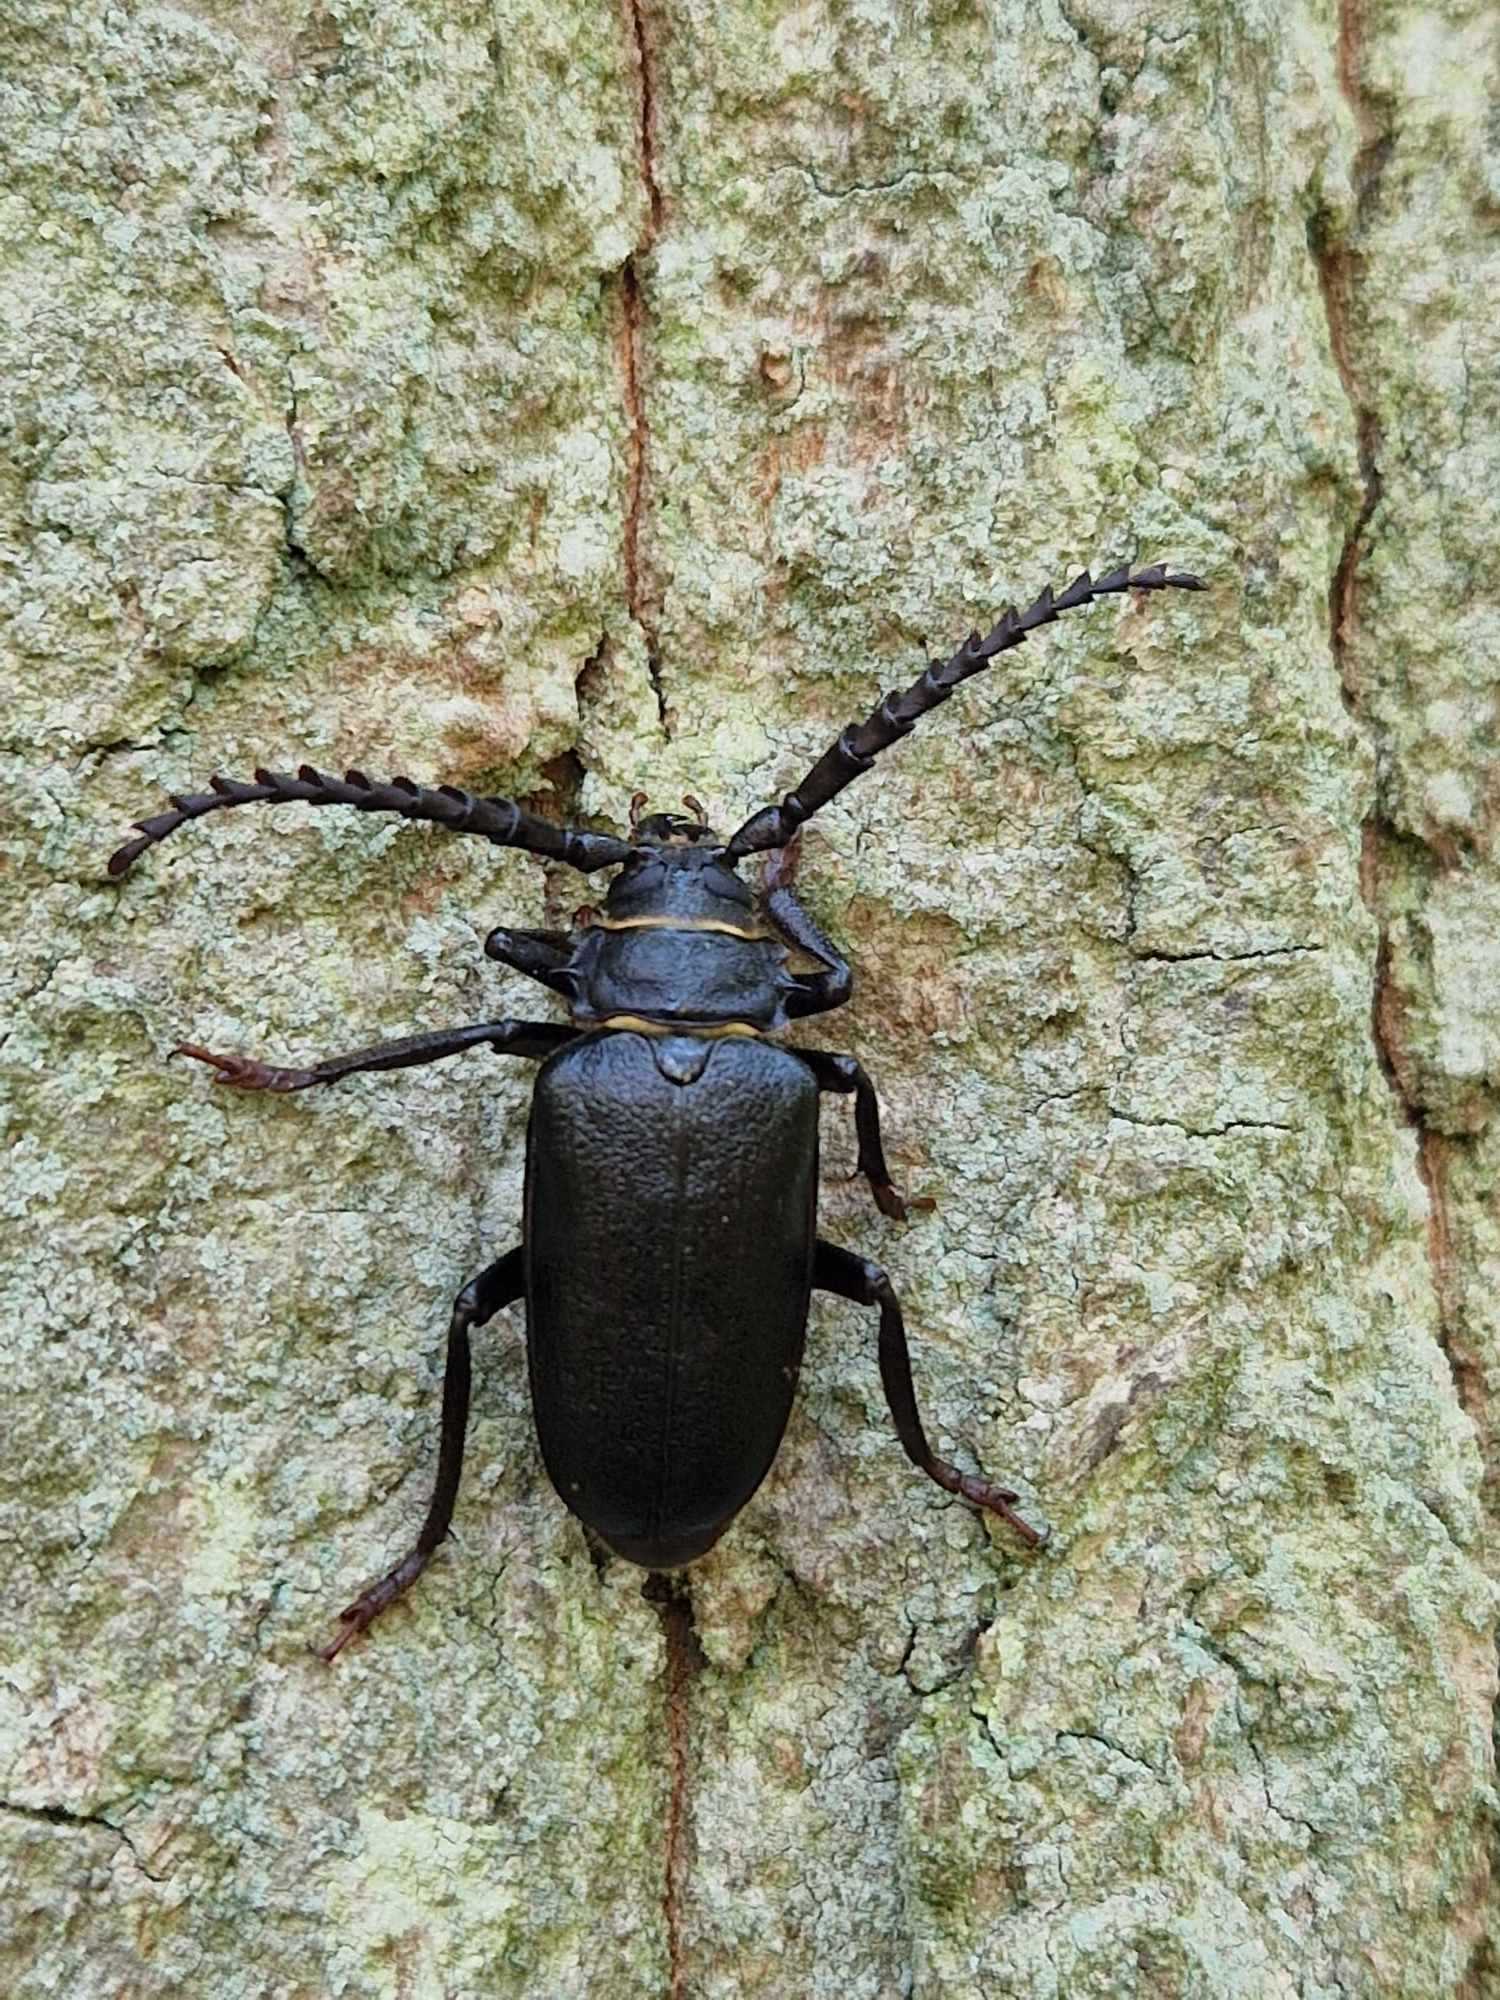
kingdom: Animalia
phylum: Arthropoda
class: Insecta
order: Coleoptera
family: Cerambycidae
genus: Prionus
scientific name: Prionus coriarius
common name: Garver
